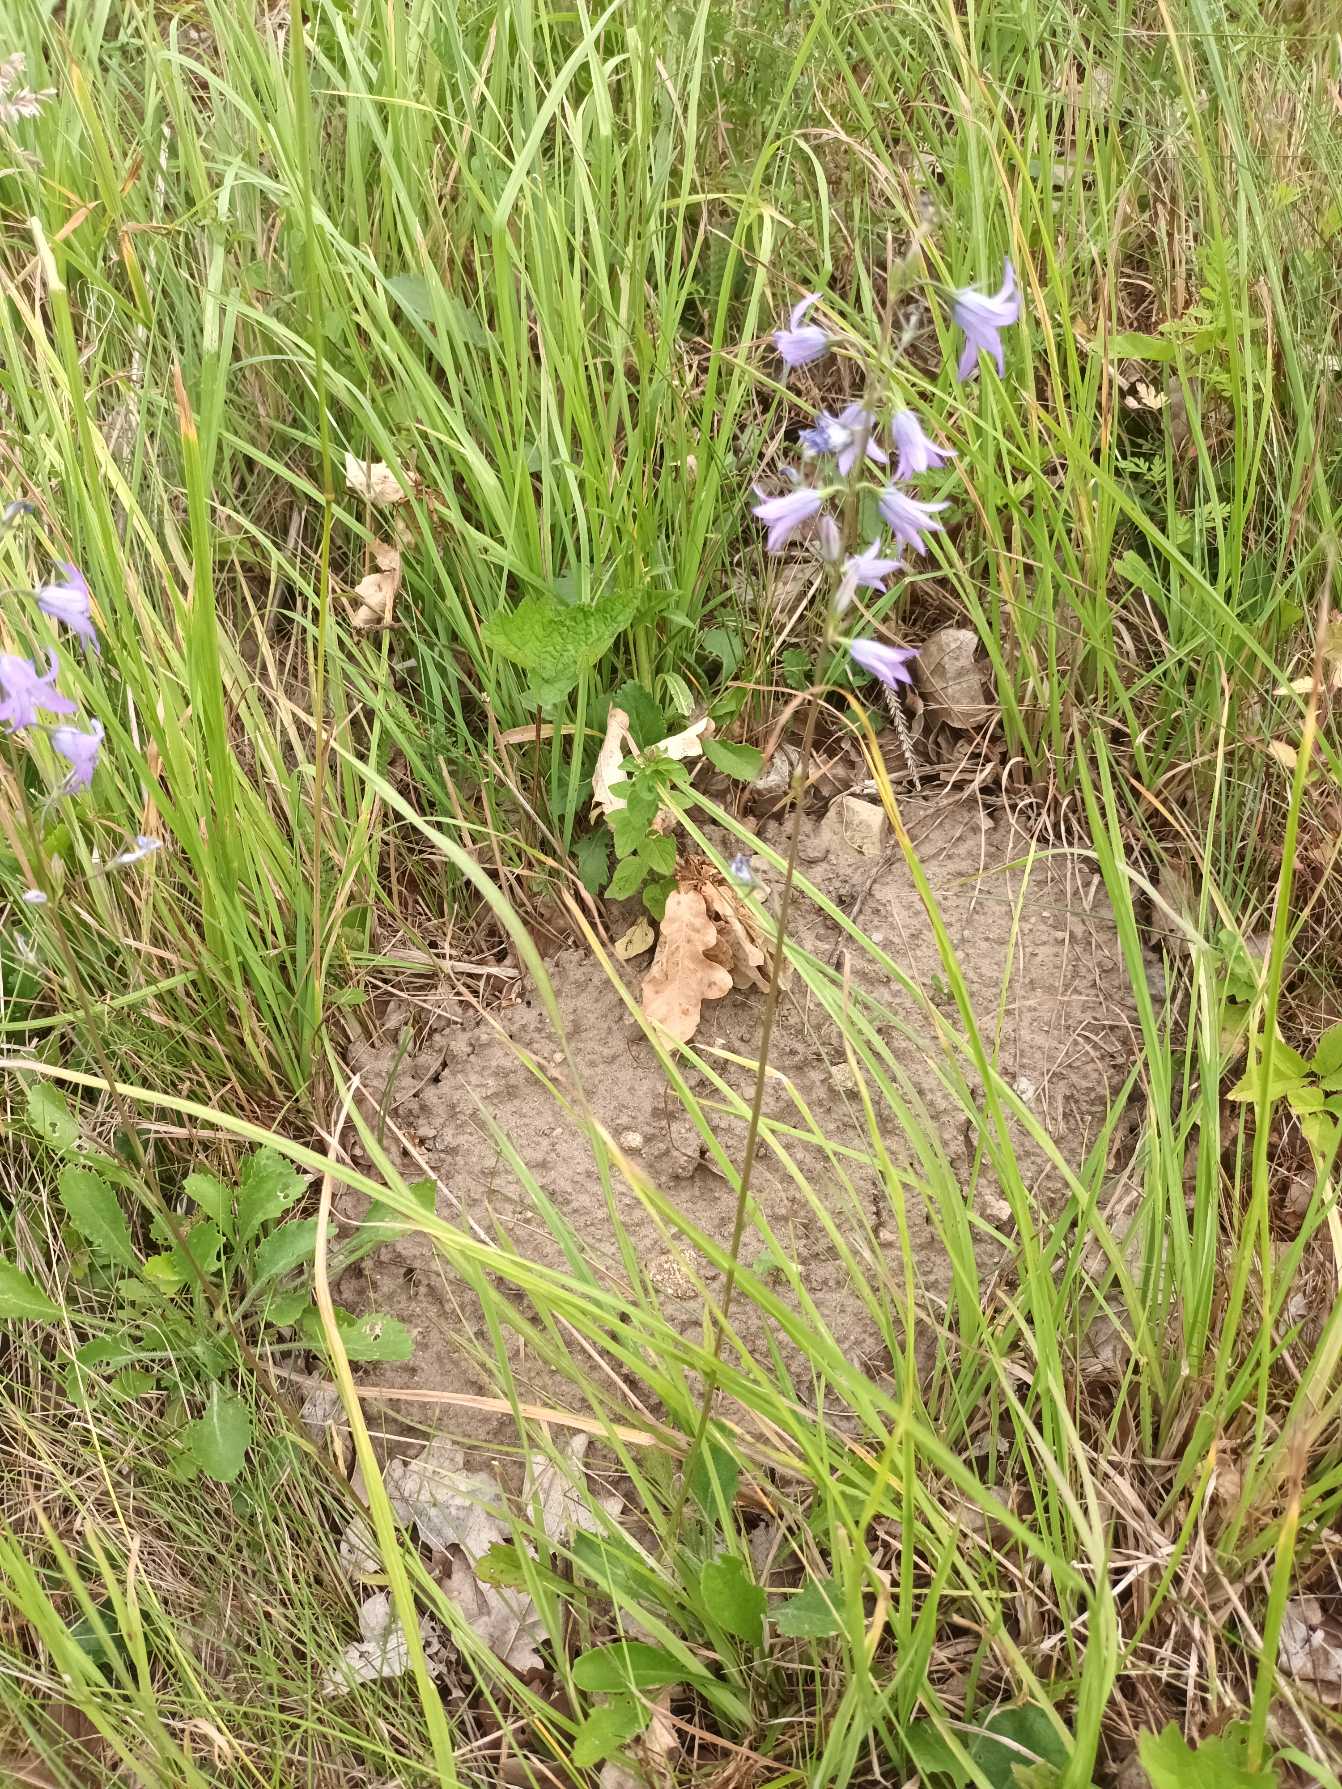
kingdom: Plantae
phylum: Tracheophyta
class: Magnoliopsida
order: Asterales
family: Campanulaceae
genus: Campanula
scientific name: Campanula rapunculus
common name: Rapunsel-klokke
